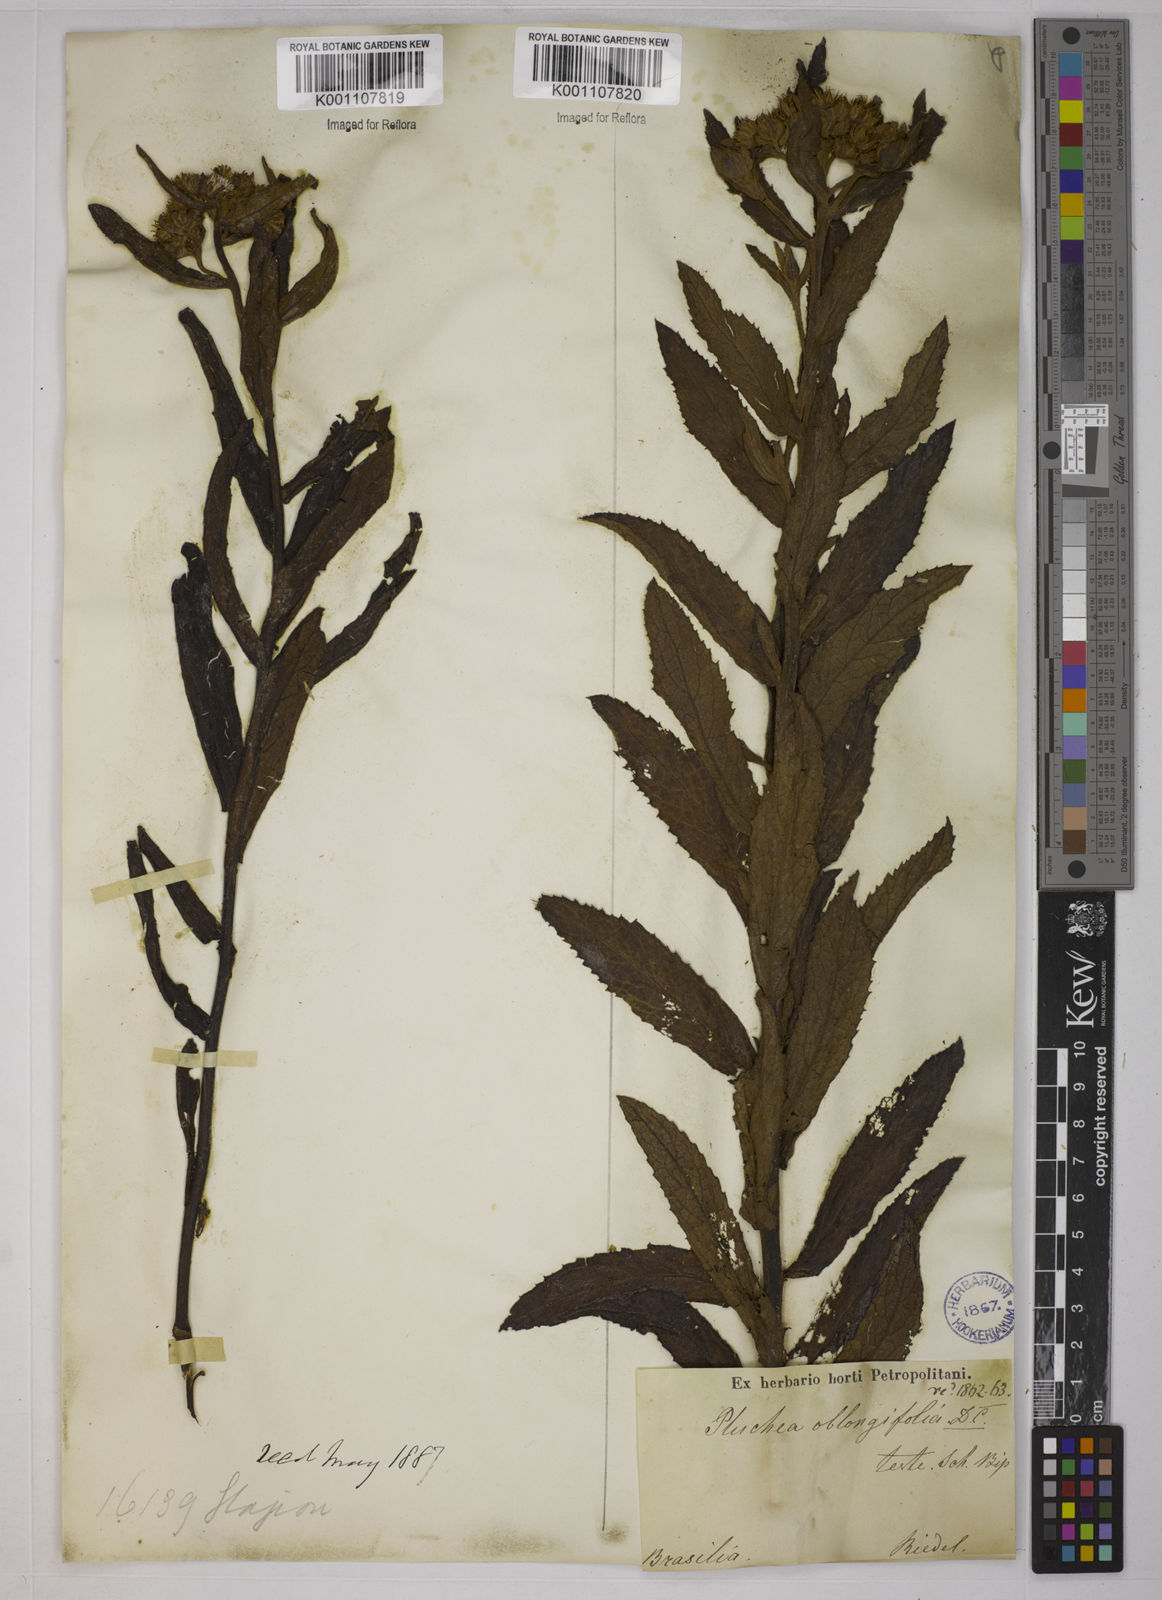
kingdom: Plantae
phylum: Tracheophyta
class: Magnoliopsida
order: Asterales
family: Asteraceae
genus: Pluchea
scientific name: Pluchea oblongifolia
